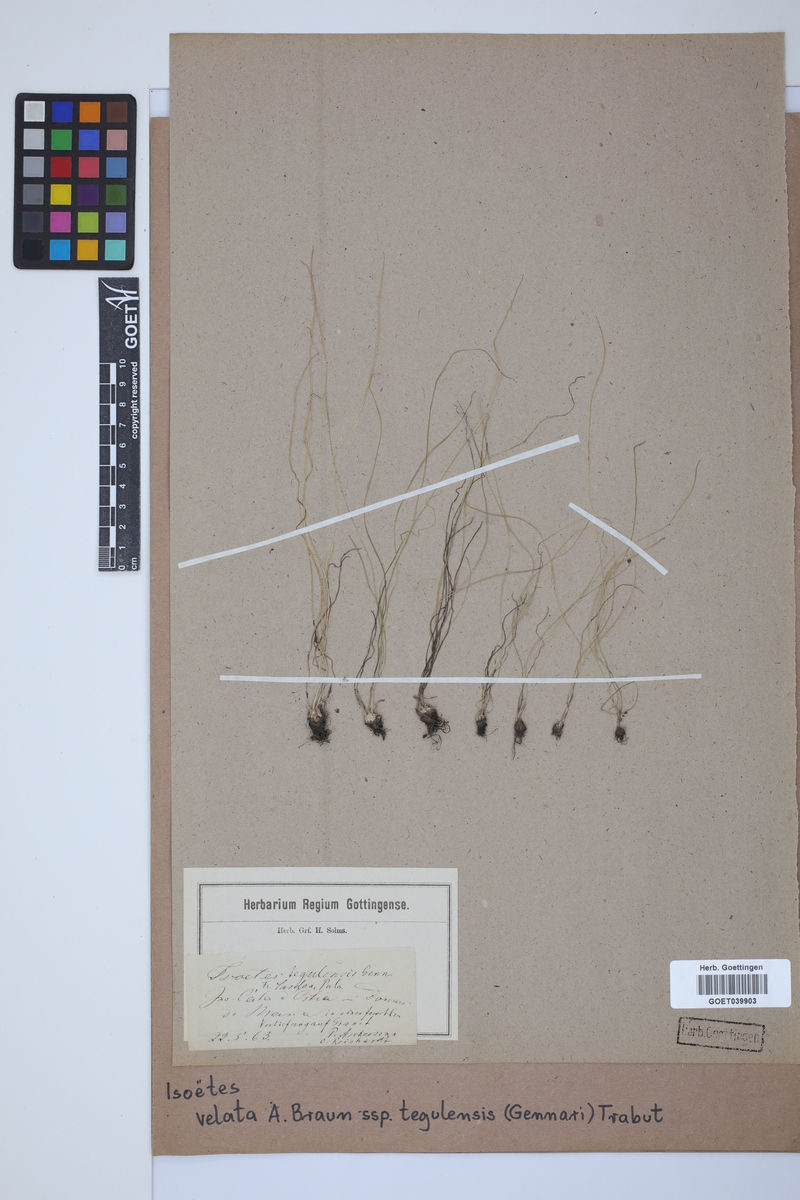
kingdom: Plantae
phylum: Tracheophyta
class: Lycopodiopsida
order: Isoetales
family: Isoetaceae
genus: Isoetes
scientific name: Isoetes tiguliana
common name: Sardinian quillwort
